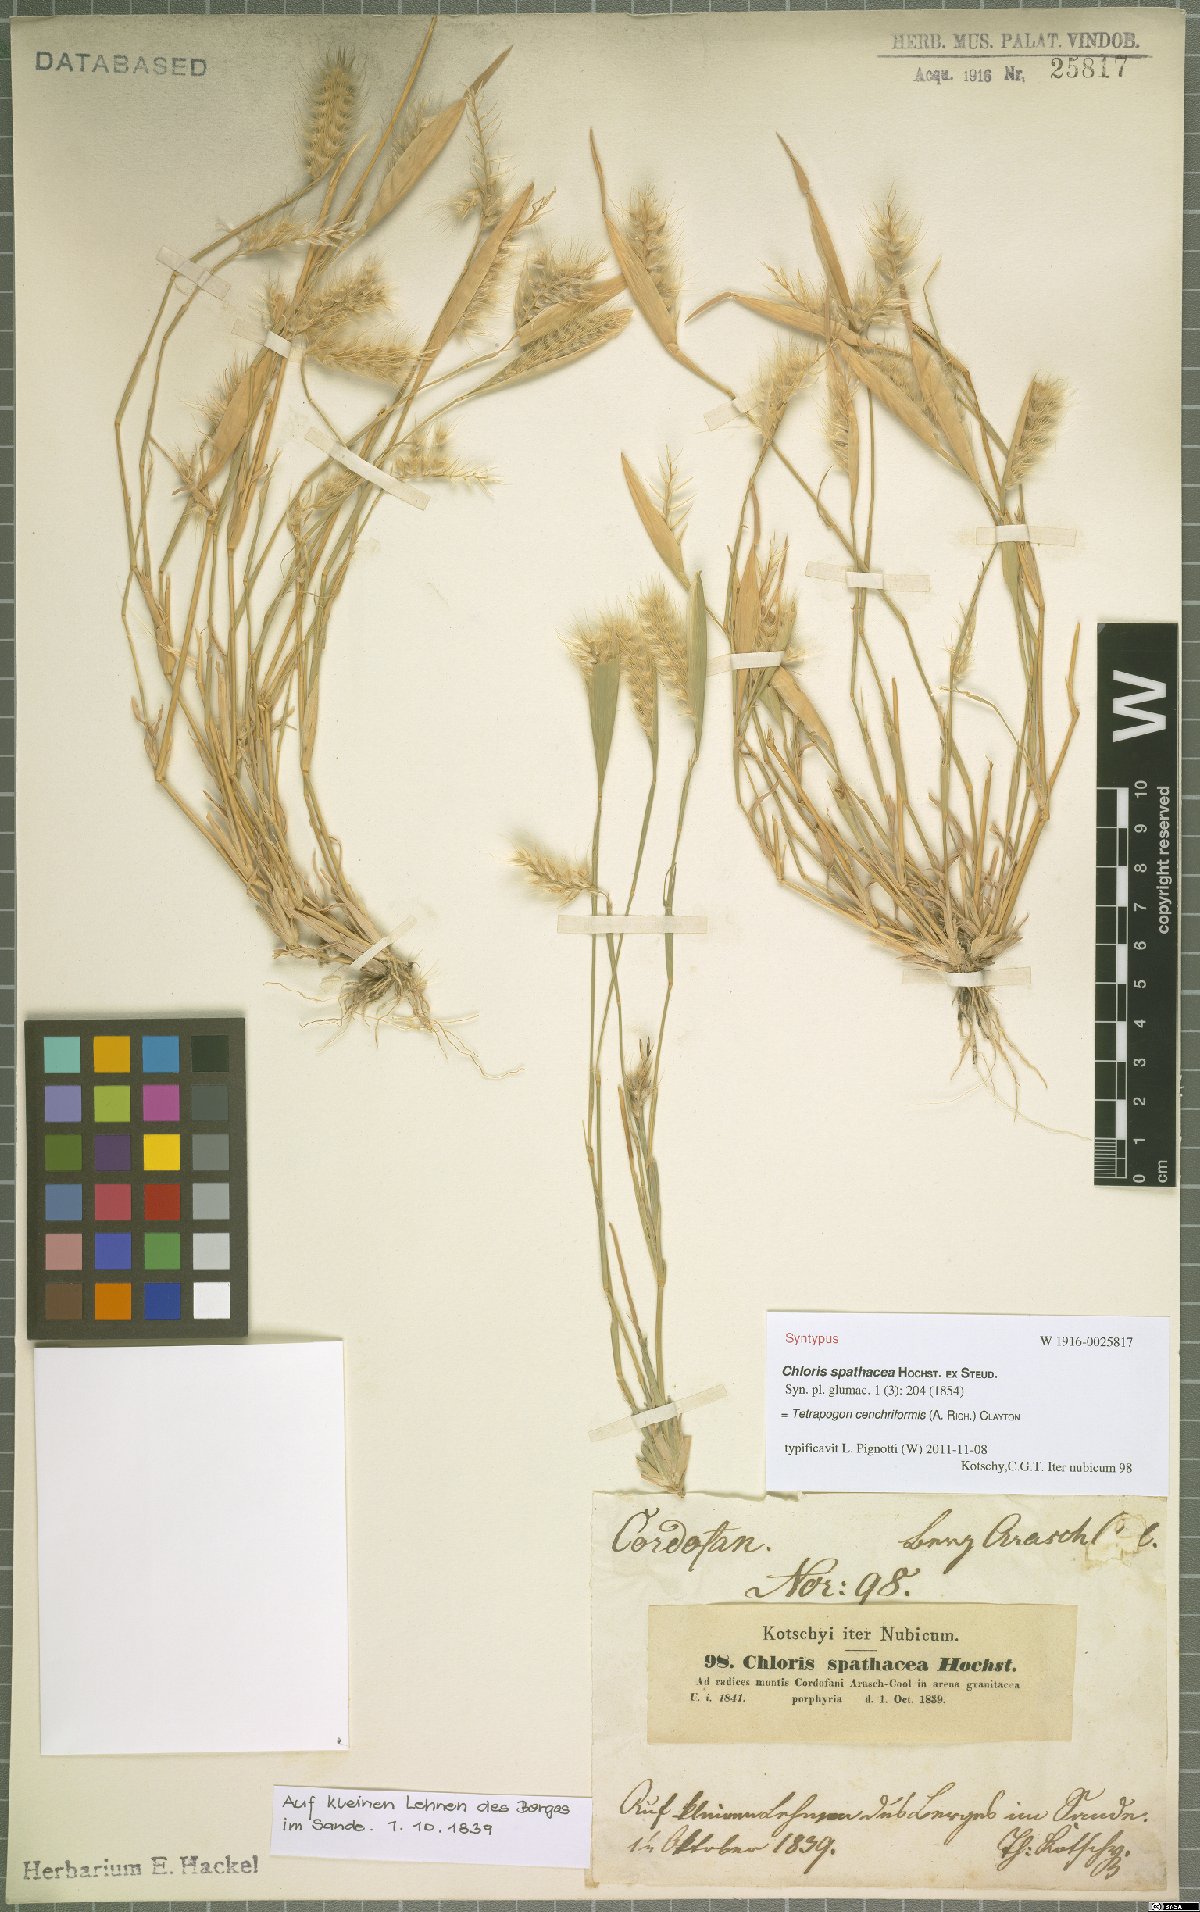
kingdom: Plantae
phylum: Tracheophyta
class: Liliopsida
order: Poales
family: Poaceae
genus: Tetrapogon
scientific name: Tetrapogon cenchriformis
